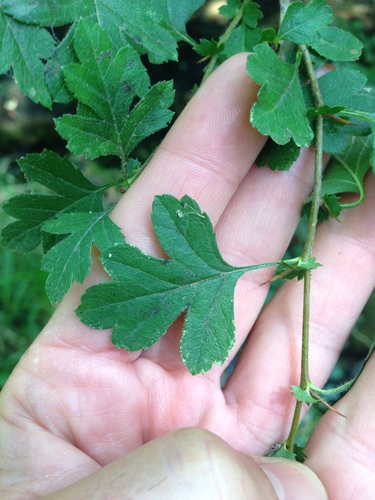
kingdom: Plantae
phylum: Tracheophyta
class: Magnoliopsida
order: Rosales
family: Rosaceae
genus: Crataegus
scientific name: Crataegus monogyna
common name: Hawthorn
